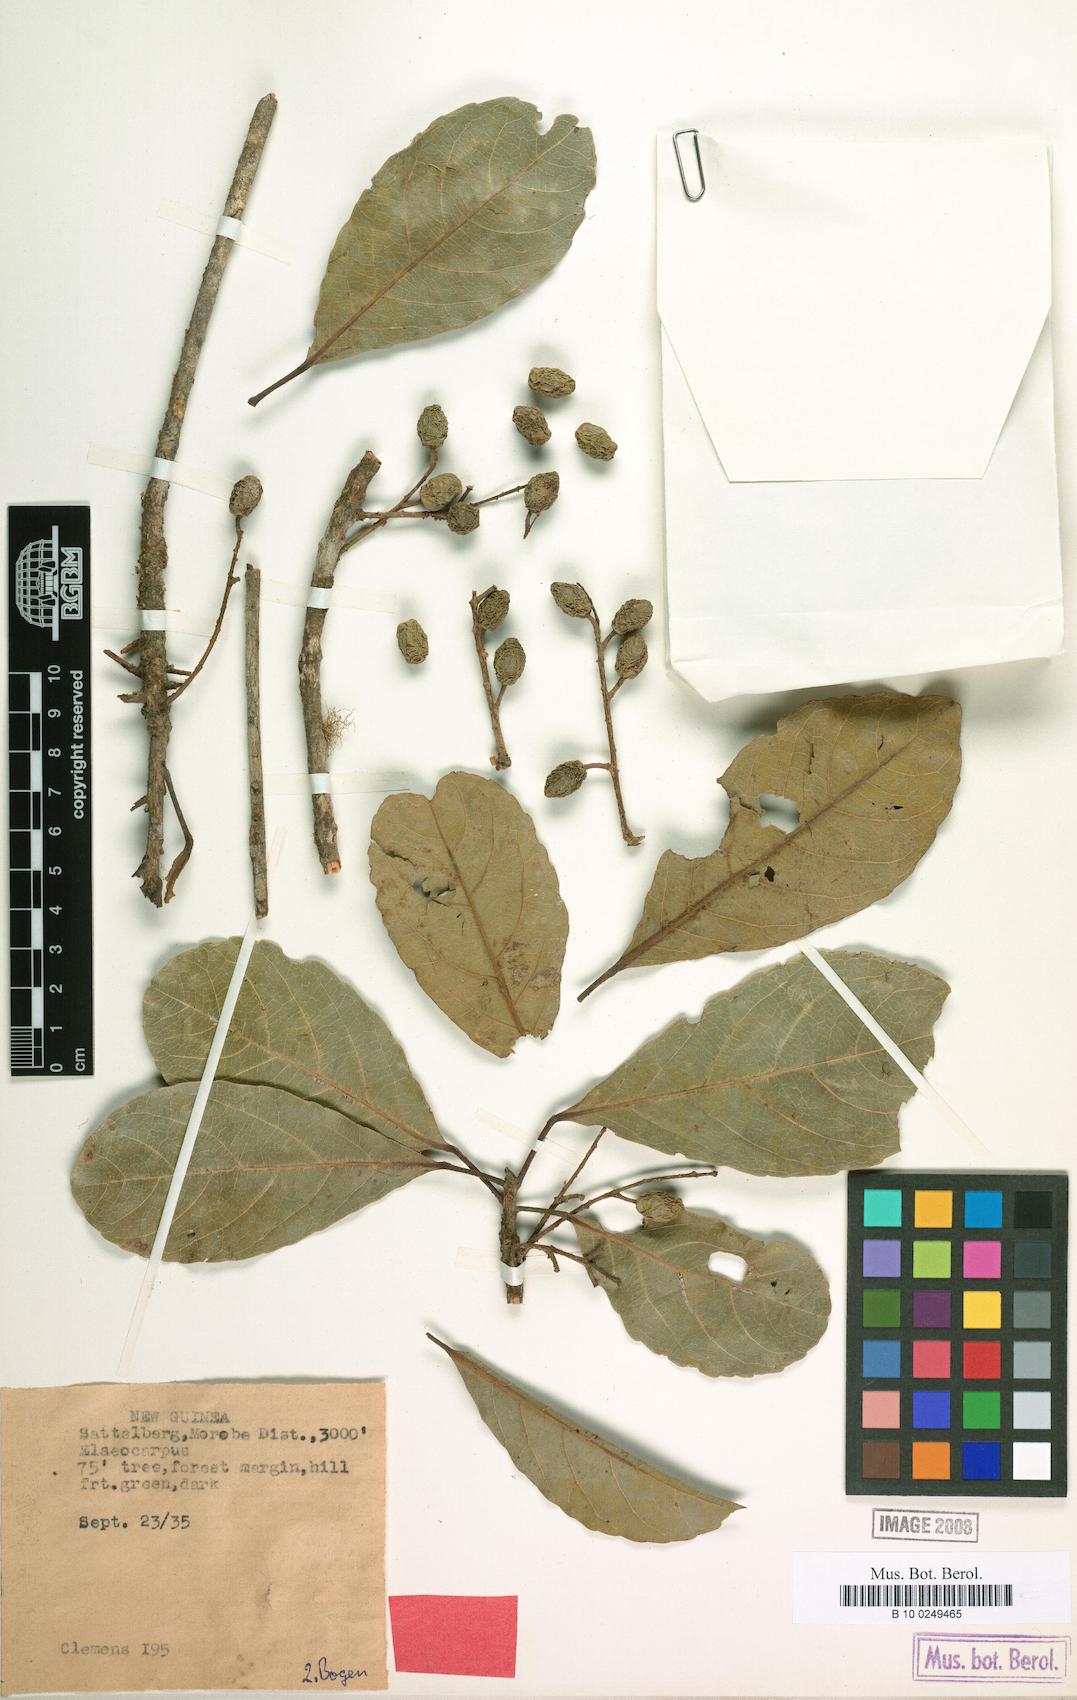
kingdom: Plantae
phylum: Tracheophyta
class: Magnoliopsida
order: Oxalidales
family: Elaeocarpaceae
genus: Elaeocarpus
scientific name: Elaeocarpus miegei
